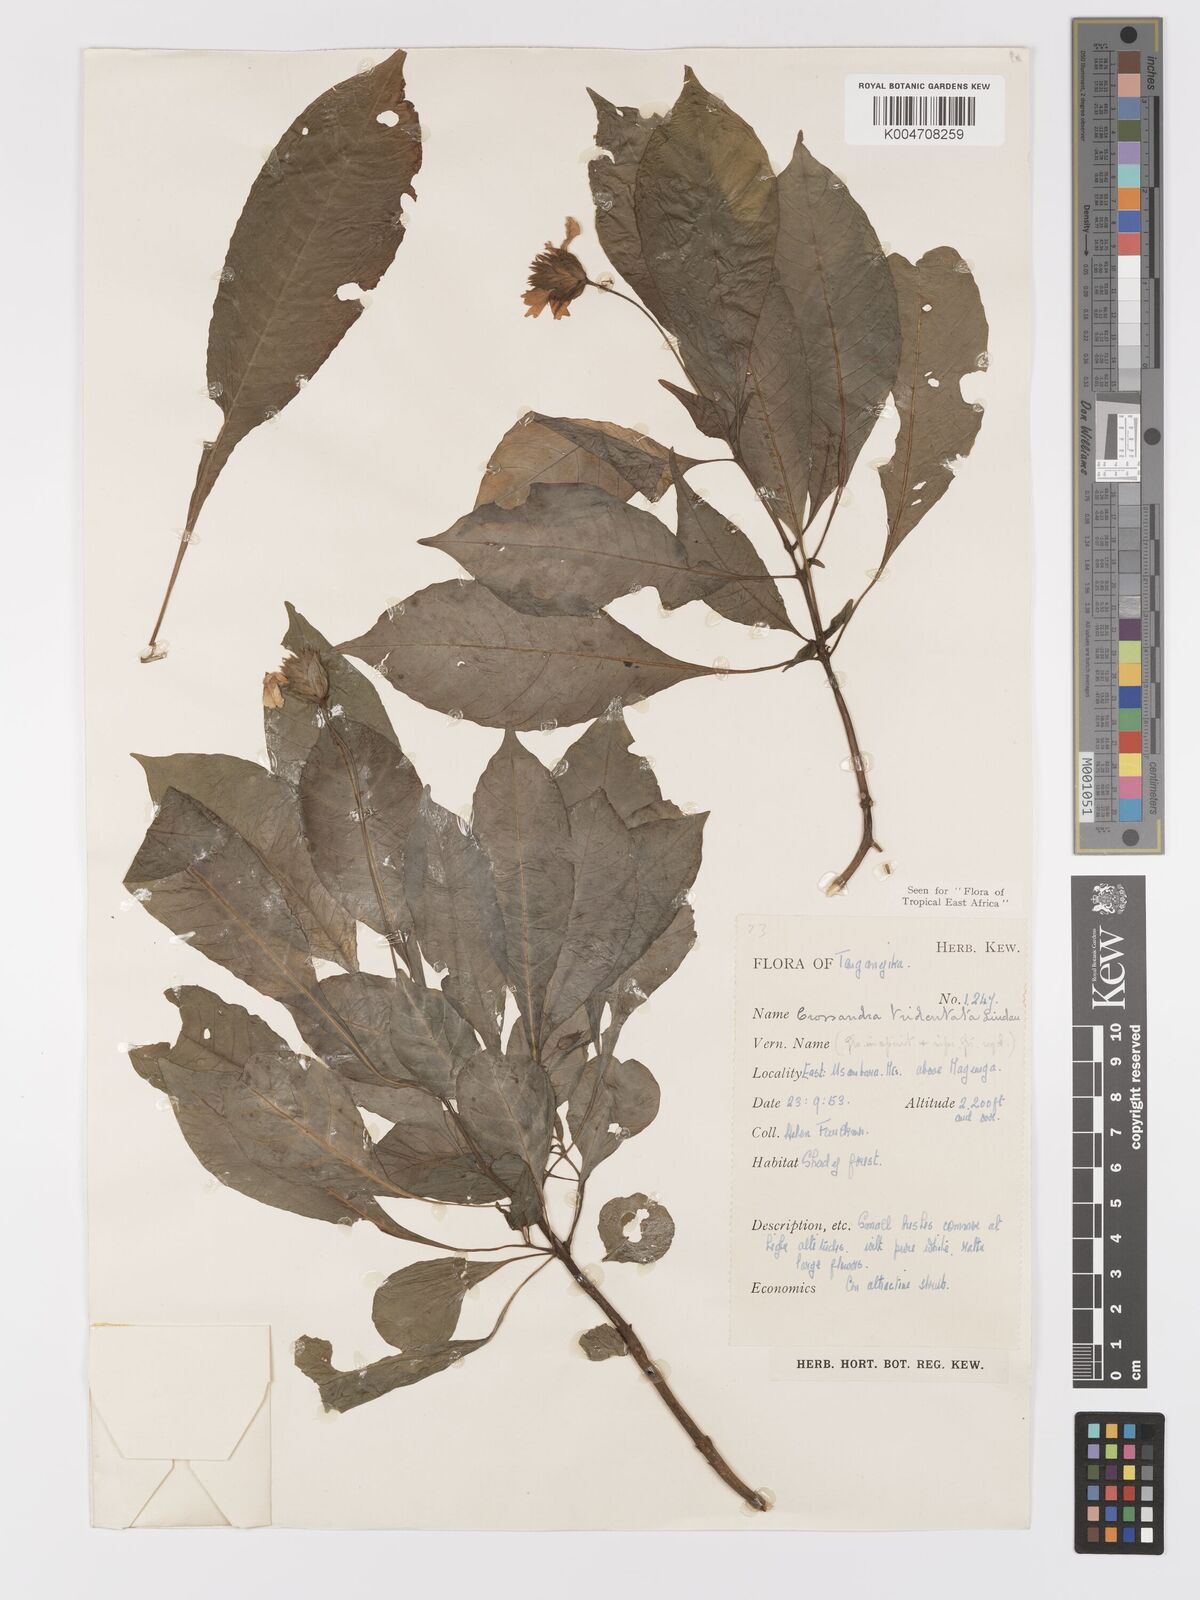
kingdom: Plantae
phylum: Tracheophyta
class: Magnoliopsida
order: Lamiales
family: Acanthaceae
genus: Crossandra
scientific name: Crossandra tridentata
